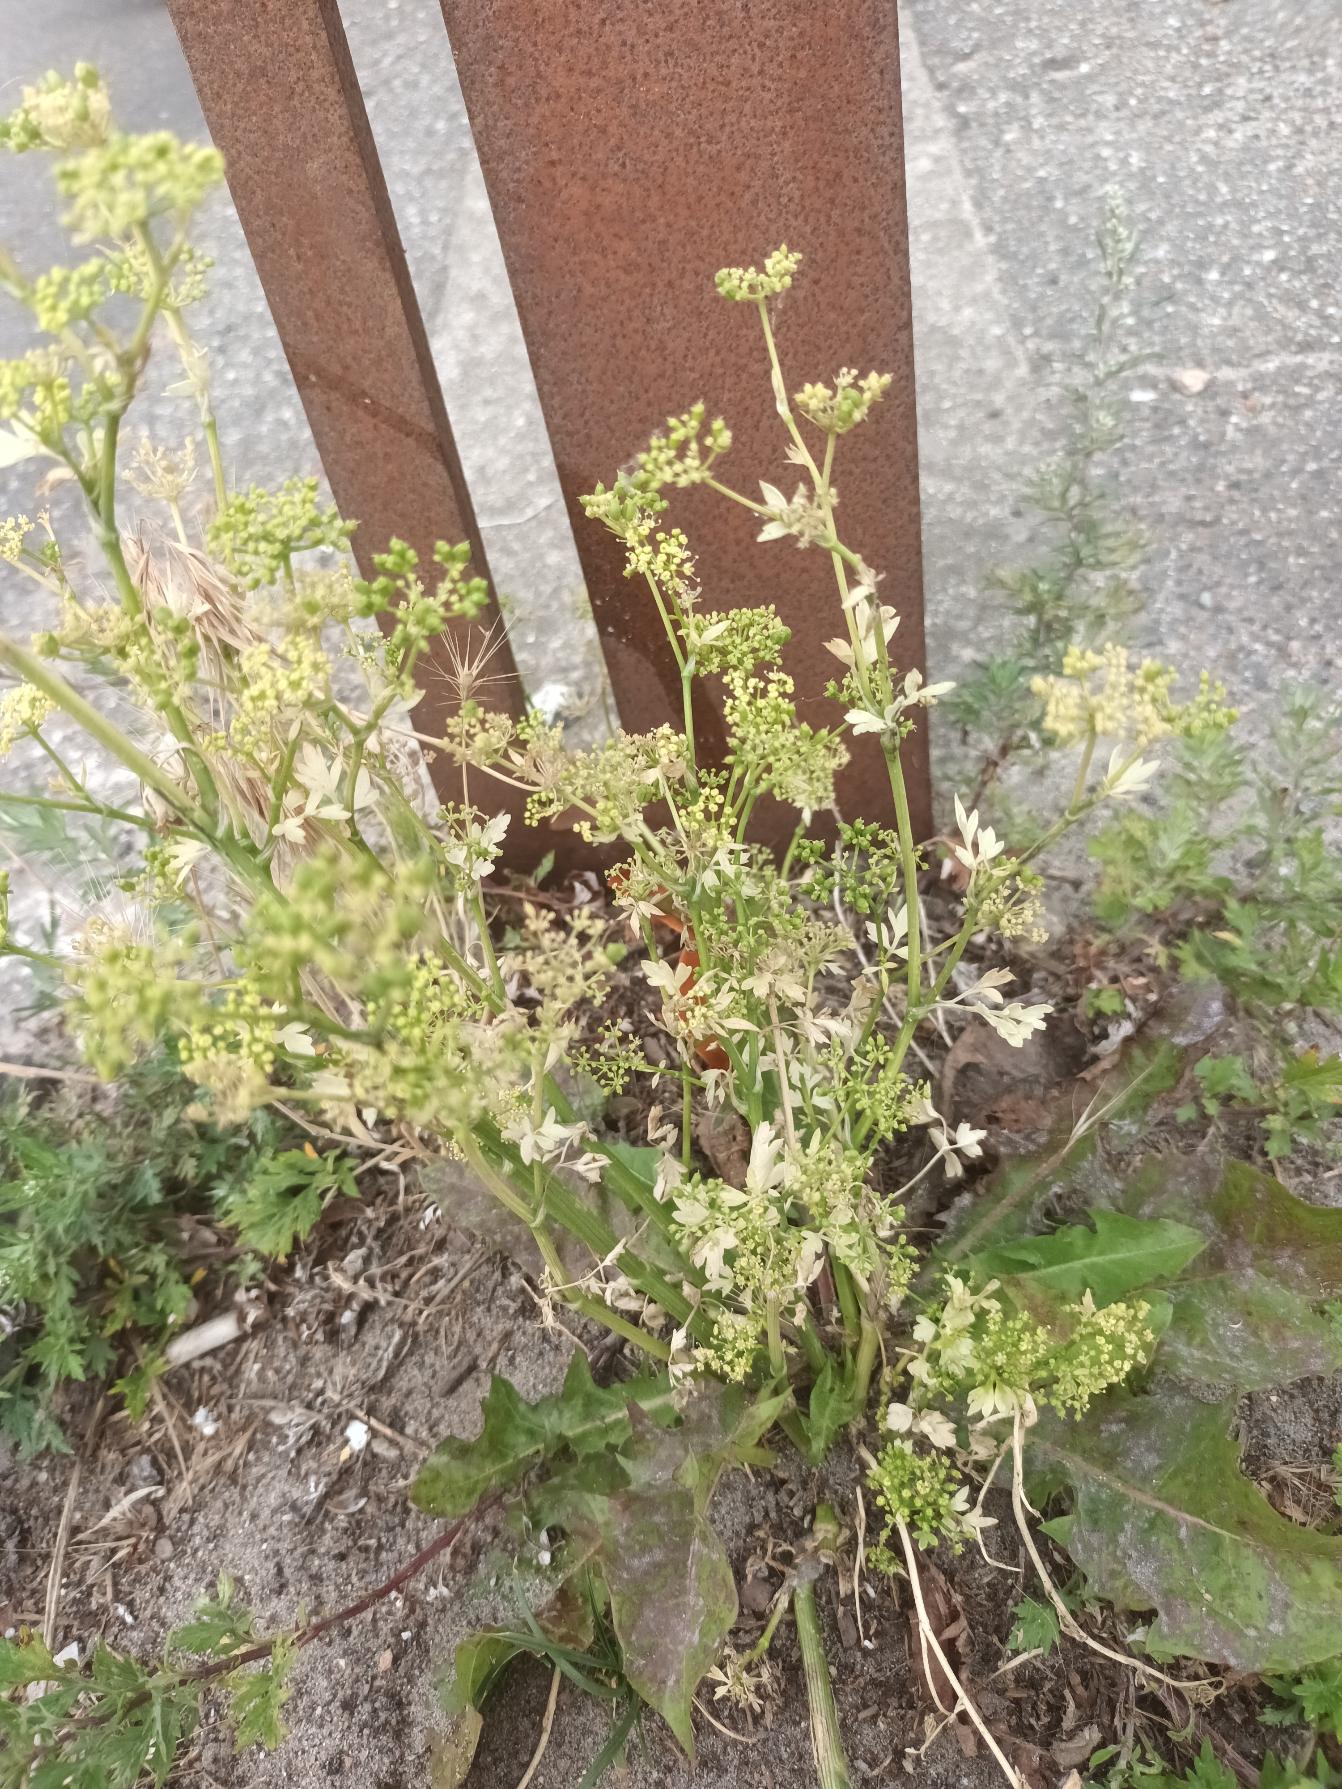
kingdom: Plantae
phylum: Tracheophyta
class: Magnoliopsida
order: Apiales
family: Apiaceae
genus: Petroselinum
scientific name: Petroselinum crispum
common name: Persille
